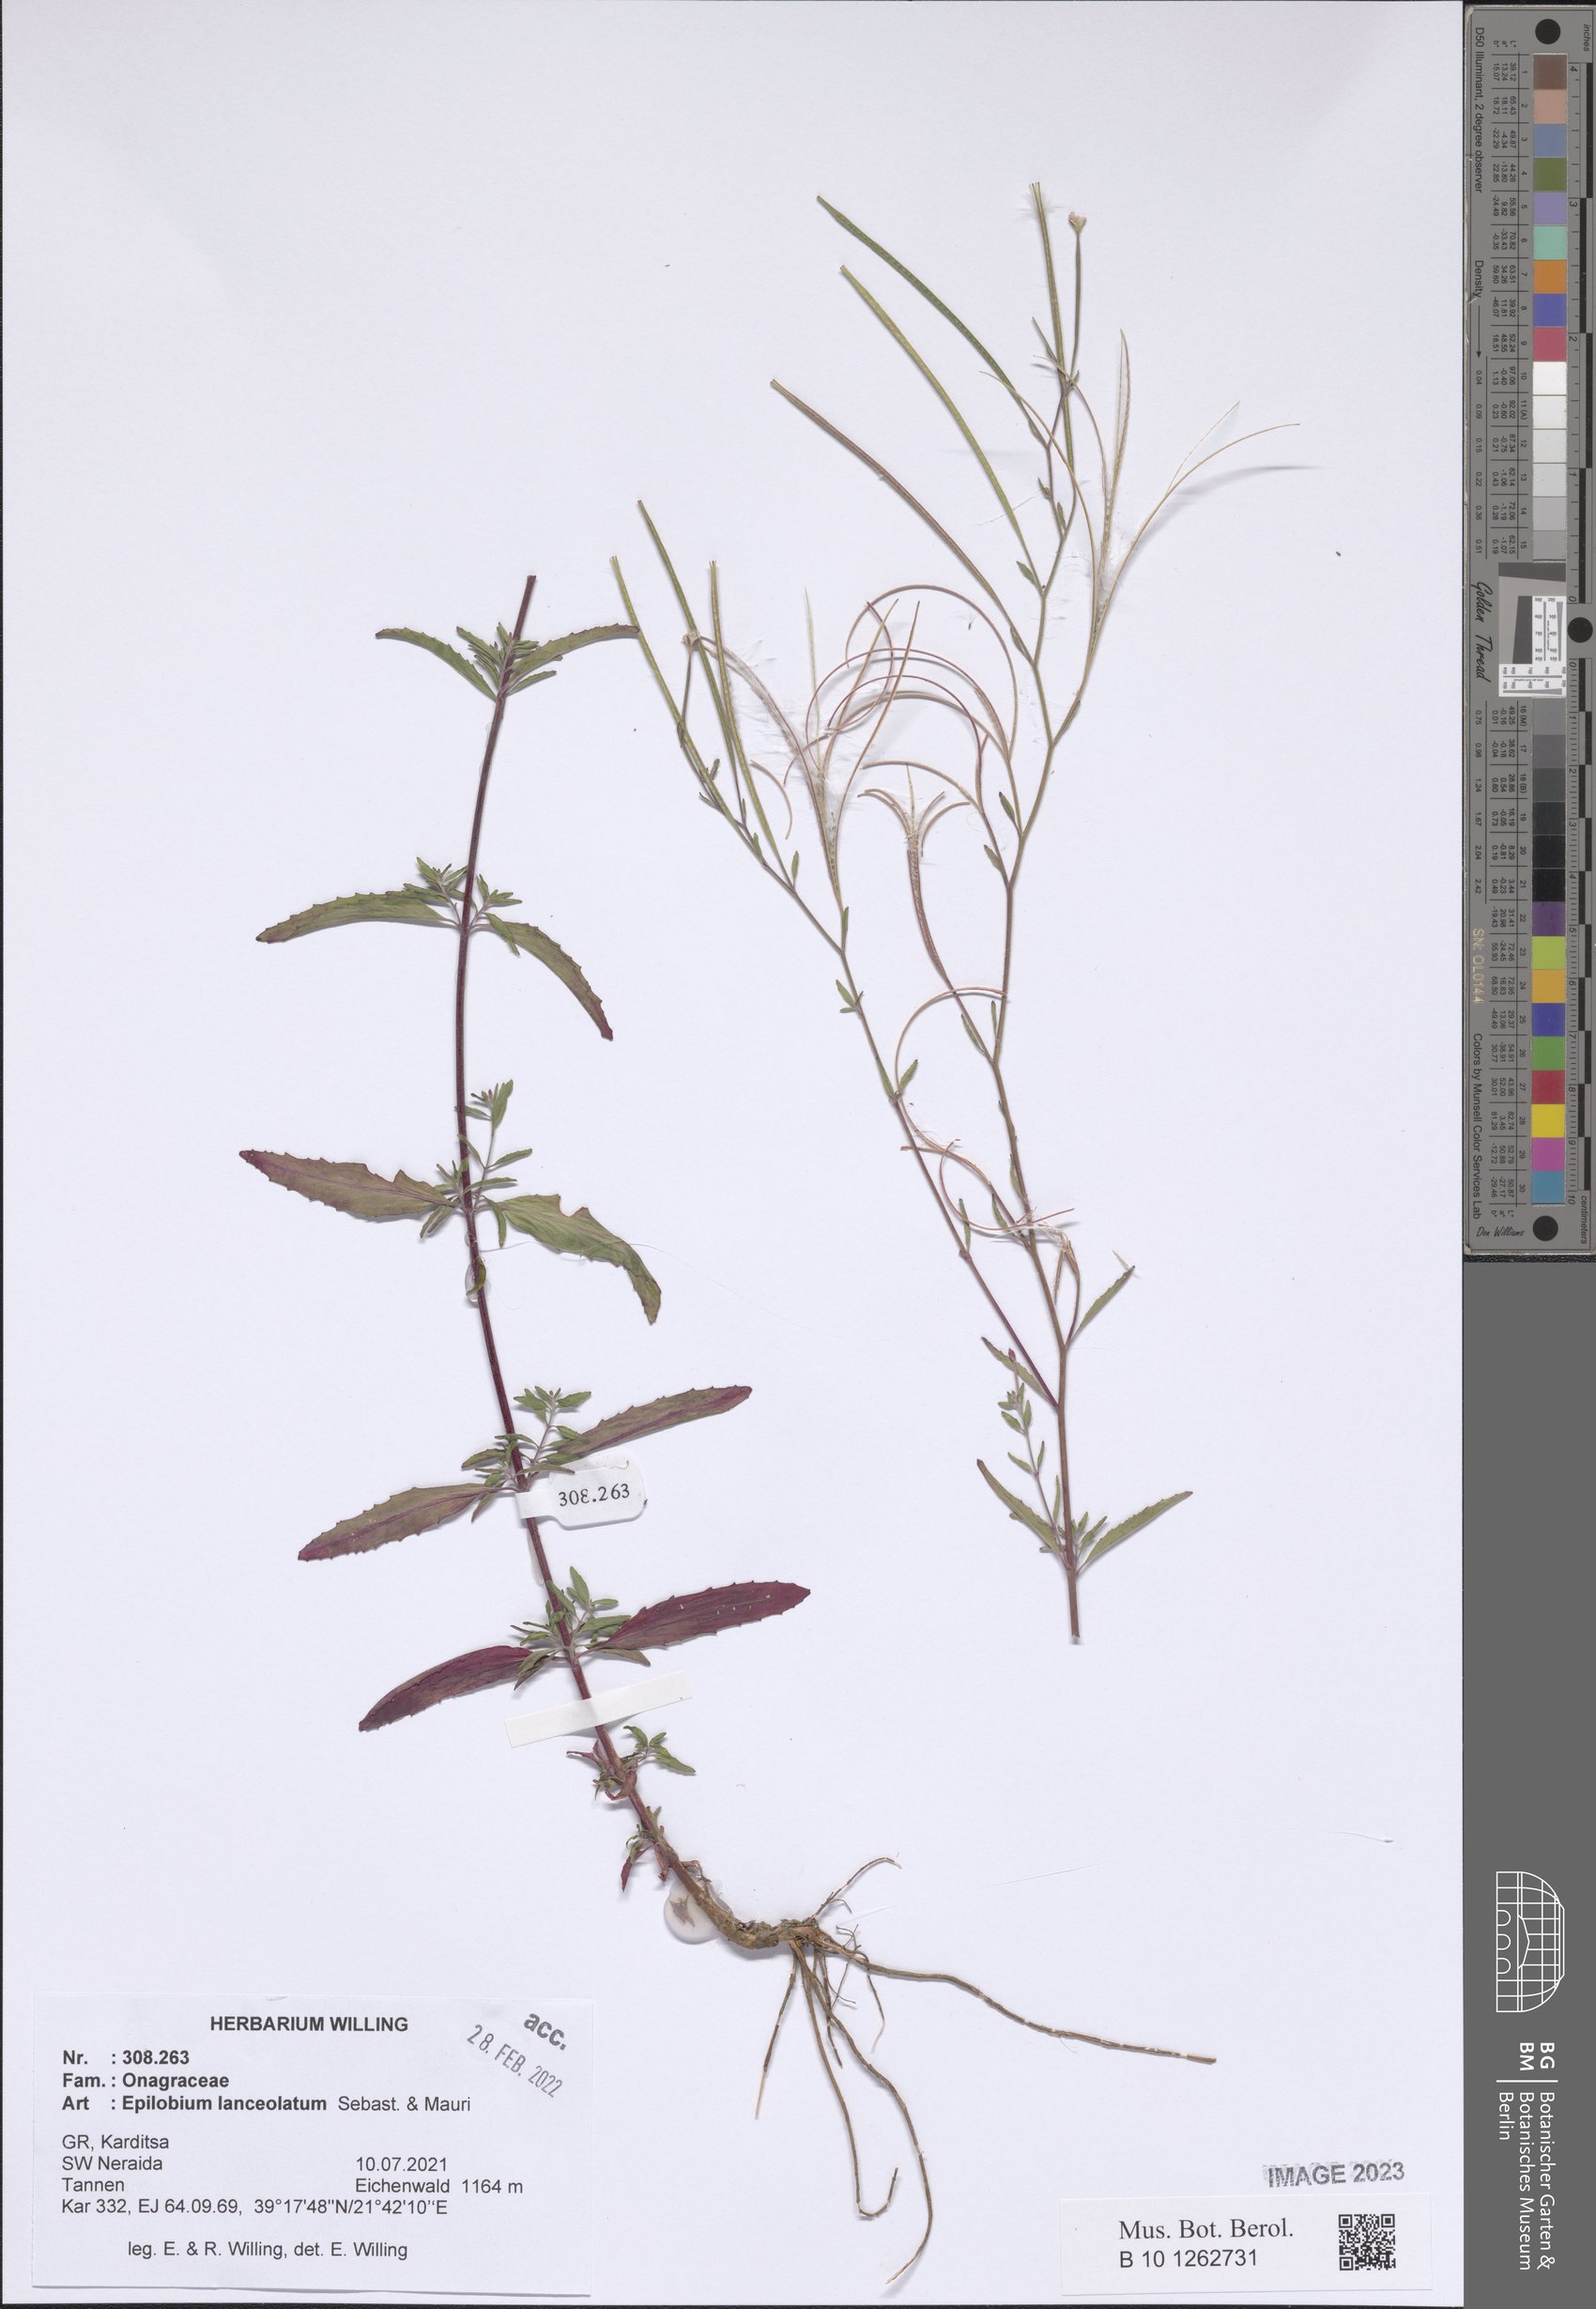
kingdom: Plantae
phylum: Tracheophyta
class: Magnoliopsida
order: Myrtales
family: Onagraceae
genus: Epilobium
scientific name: Epilobium lanceolatum
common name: Spear-leaved willowherb
